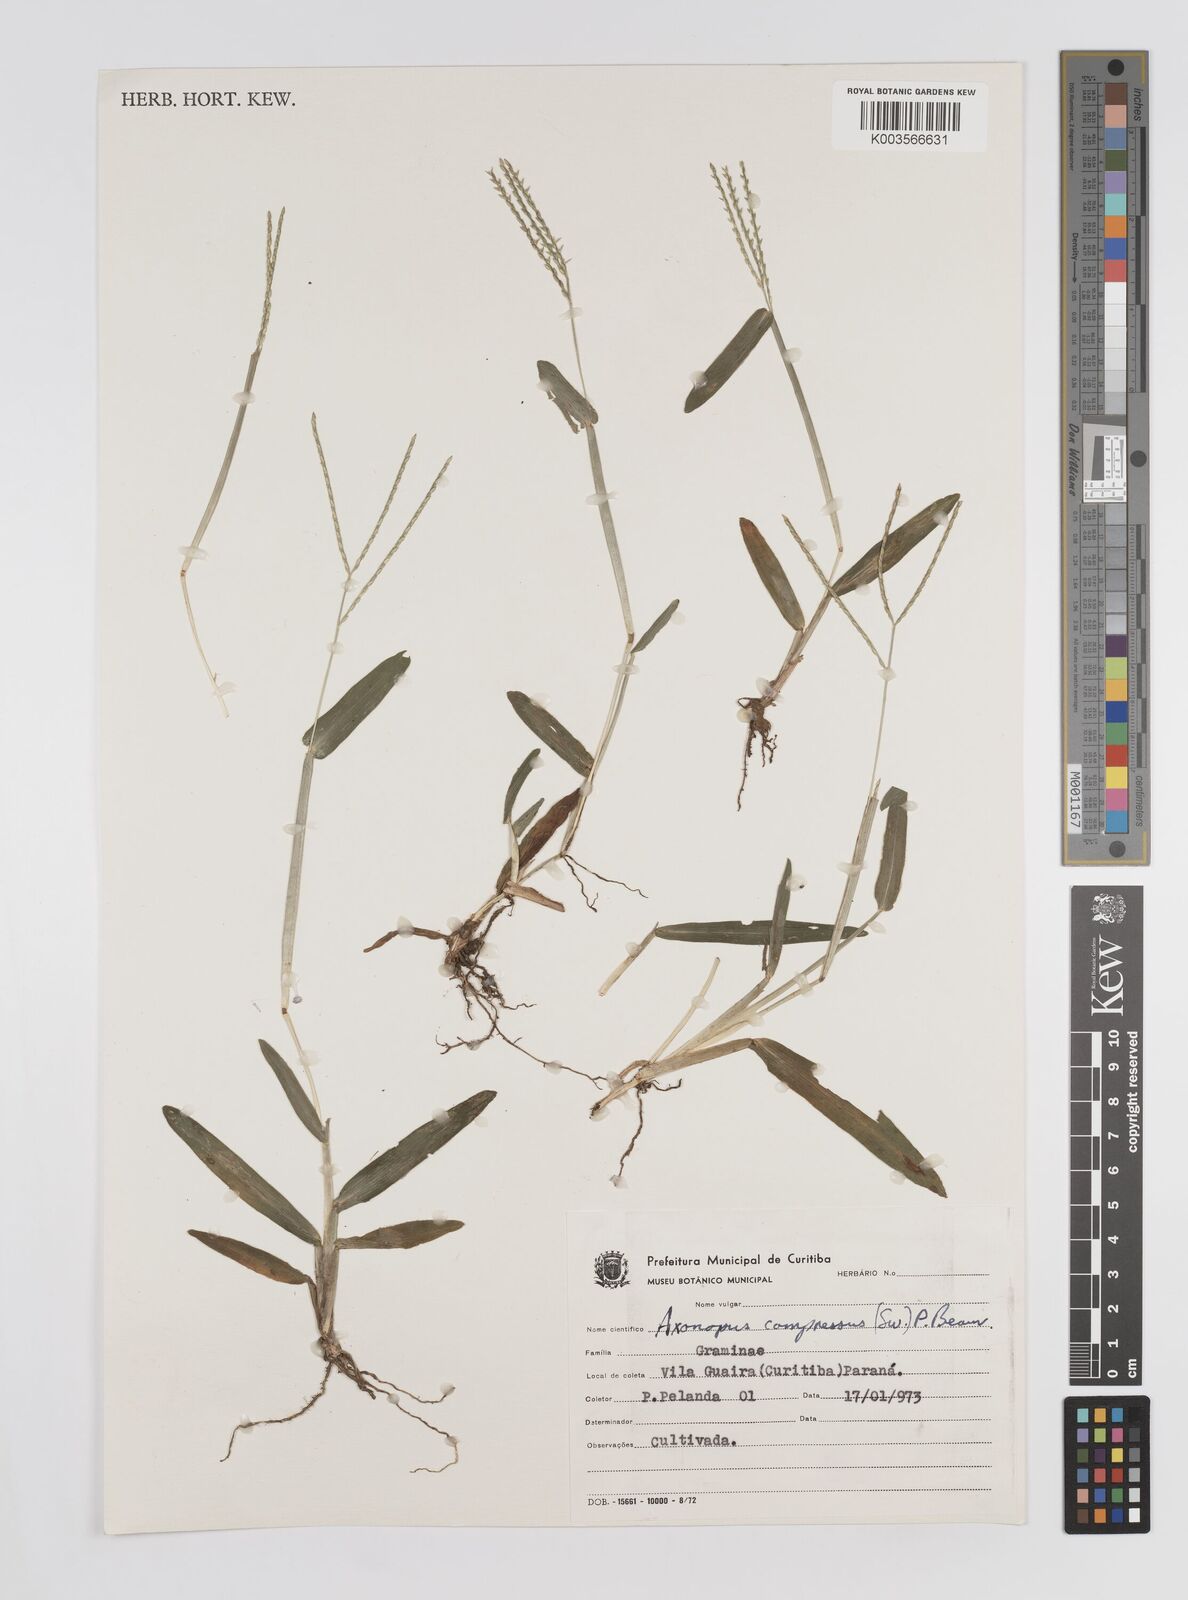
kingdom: Plantae
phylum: Tracheophyta
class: Liliopsida
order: Poales
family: Poaceae
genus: Axonopus
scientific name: Axonopus compressus
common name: American carpet grass
